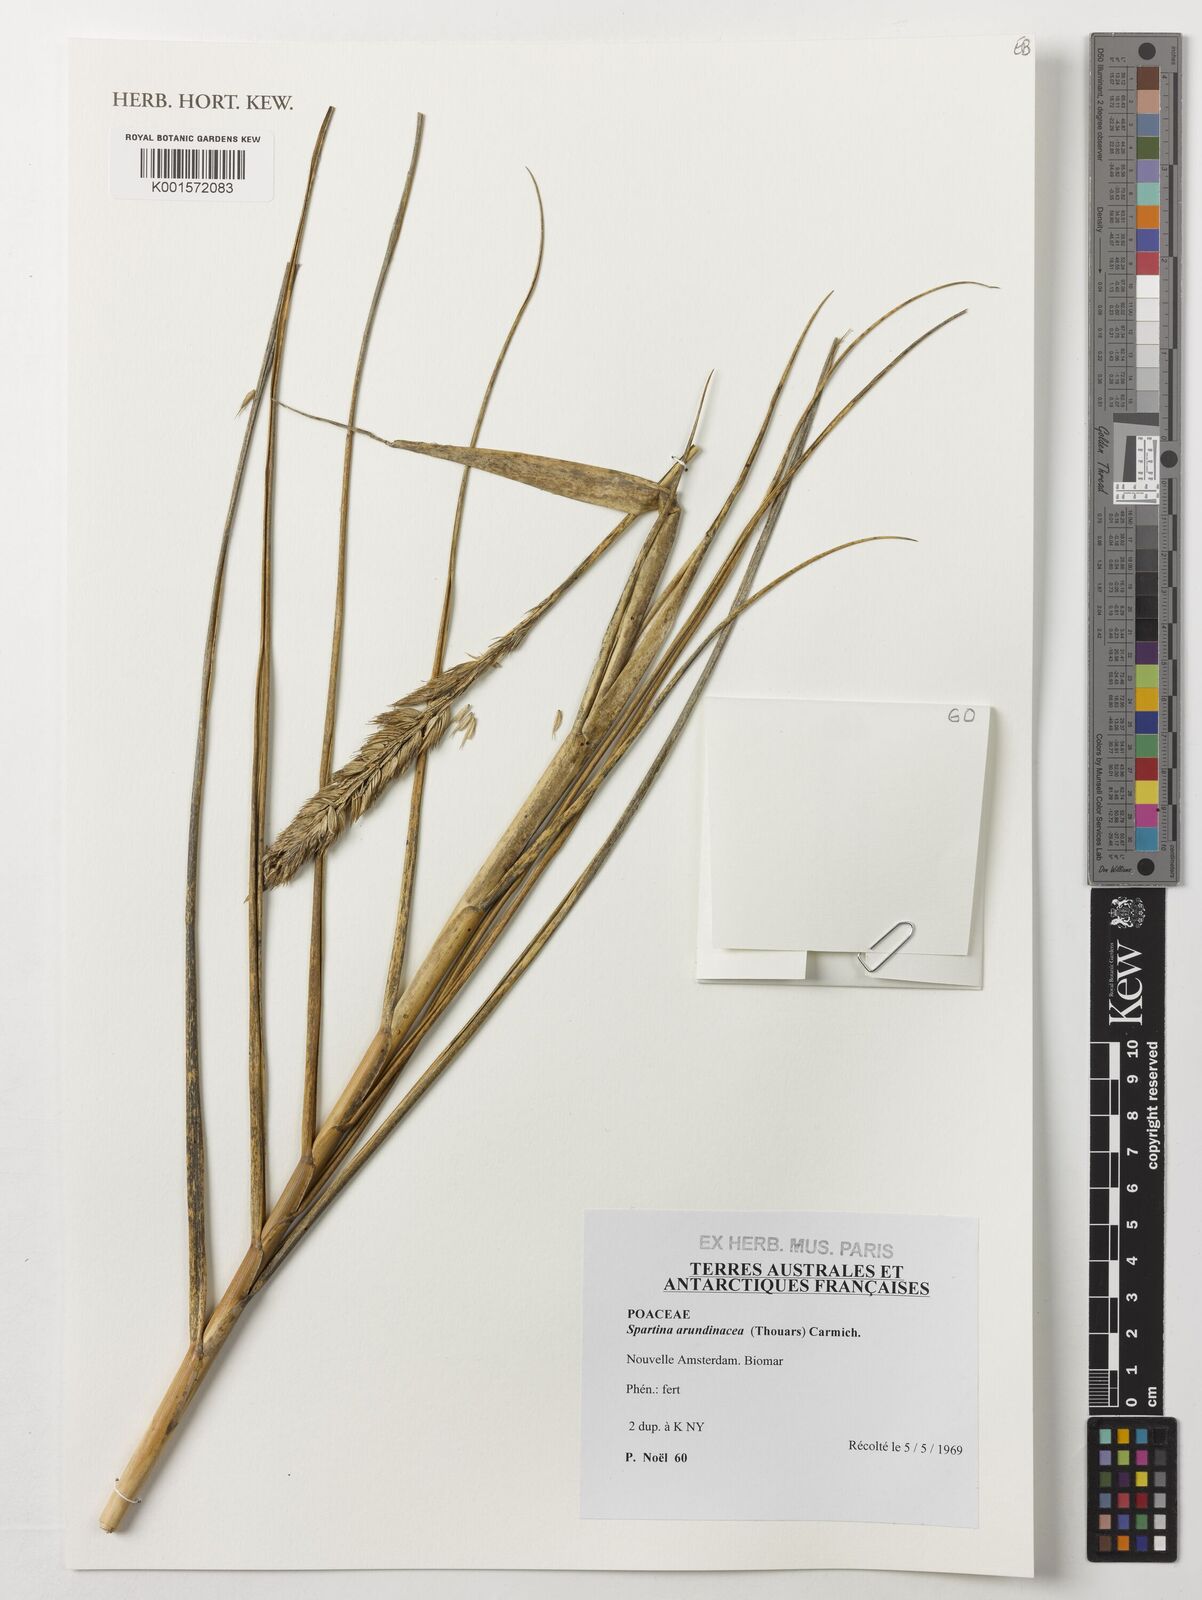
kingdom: Plantae
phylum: Tracheophyta
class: Liliopsida
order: Poales
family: Poaceae
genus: Sporobolus
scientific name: Sporobolus mobberleyanus
